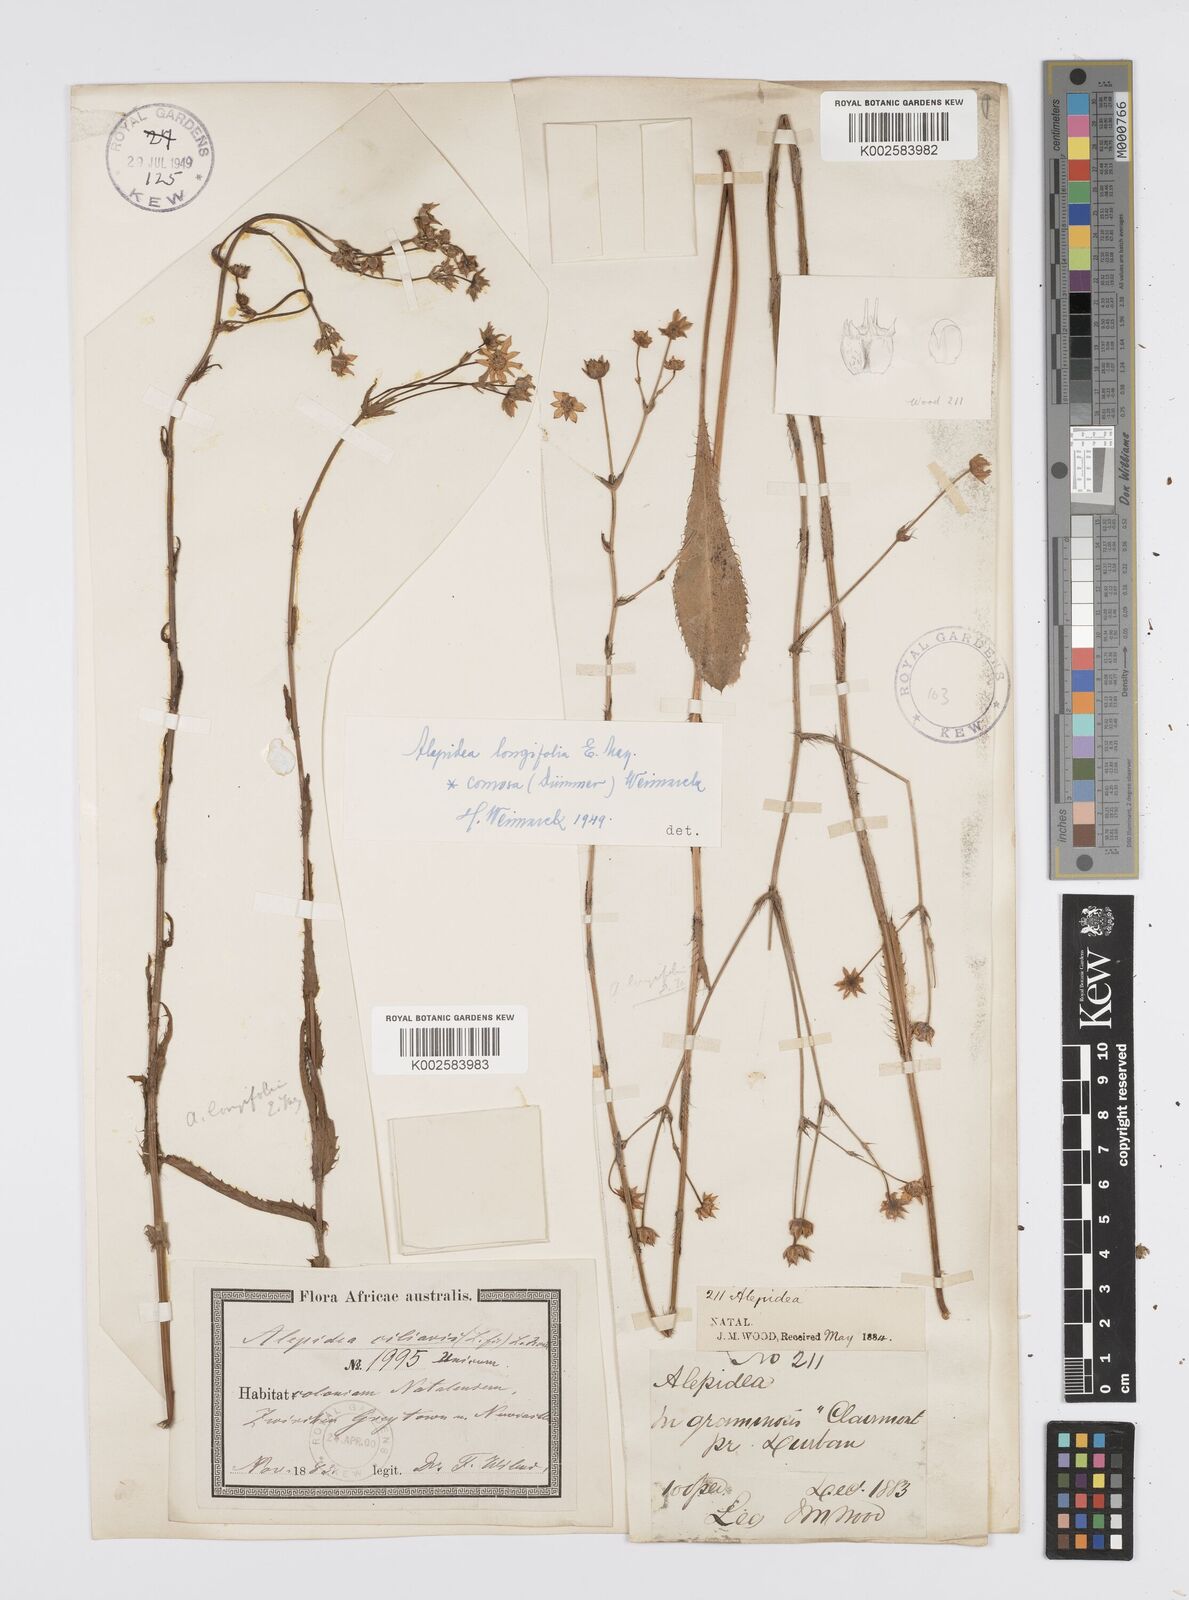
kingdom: Plantae
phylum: Tracheophyta
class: Magnoliopsida
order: Apiales
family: Apiaceae
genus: Alepidea
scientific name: Alepidea
